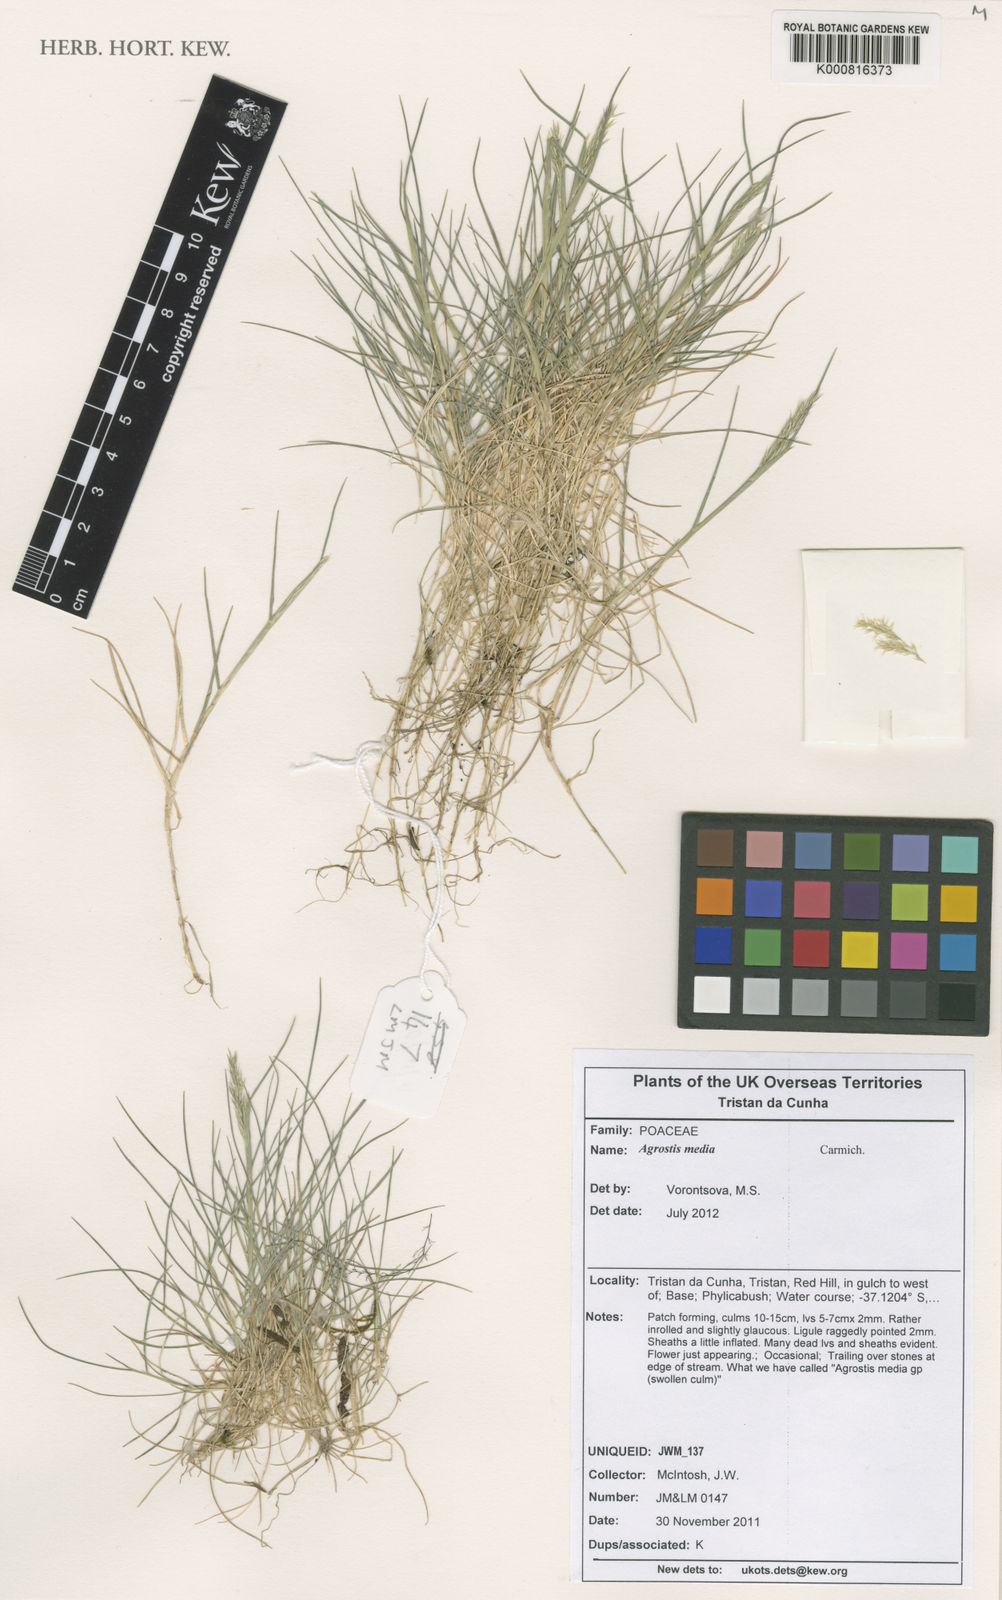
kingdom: Plantae
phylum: Tracheophyta
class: Liliopsida
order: Poales
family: Poaceae
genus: Agrostis
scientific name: Agrostis media
